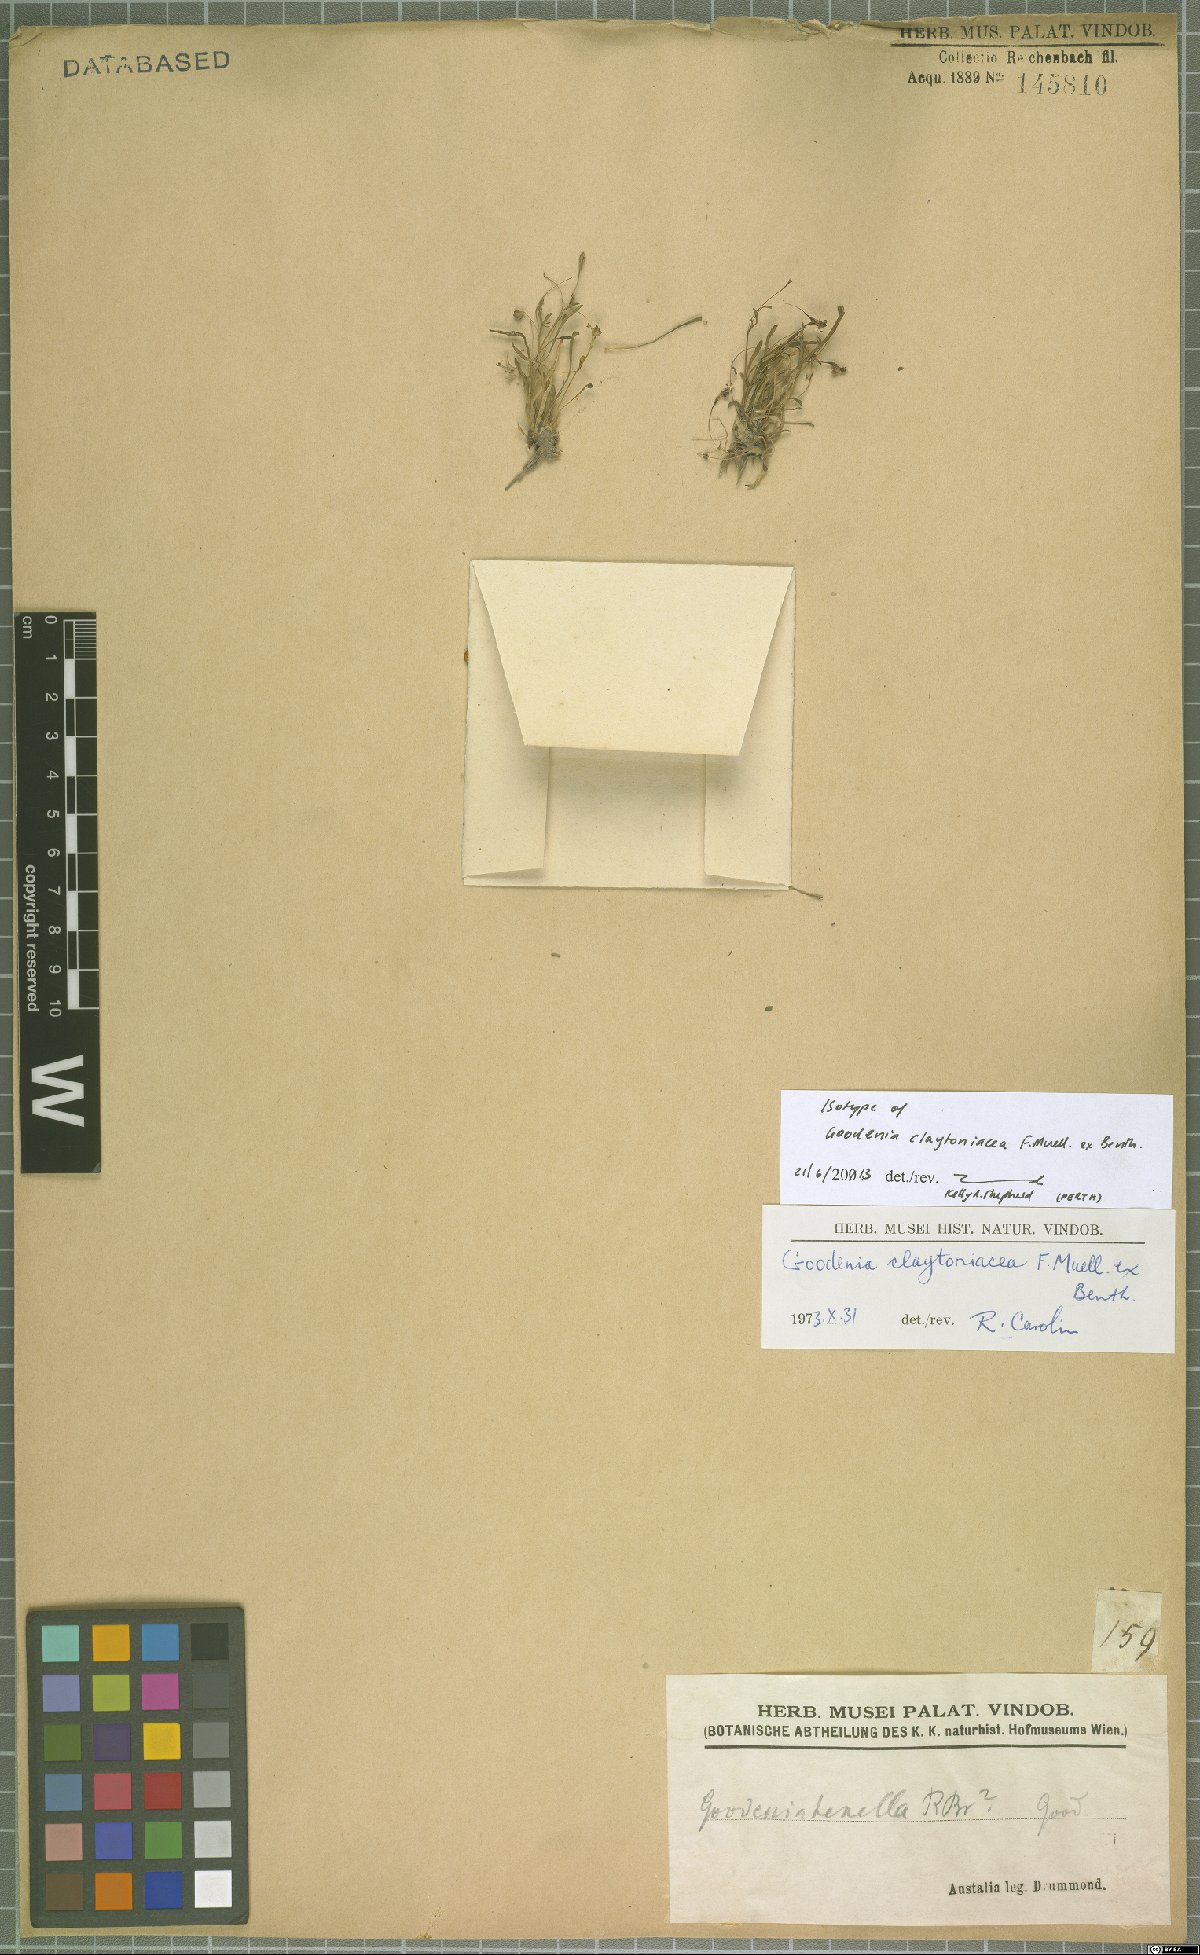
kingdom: Plantae
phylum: Tracheophyta
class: Magnoliopsida
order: Asterales
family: Goodeniaceae
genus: Goodenia
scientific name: Goodenia claytoniacea
